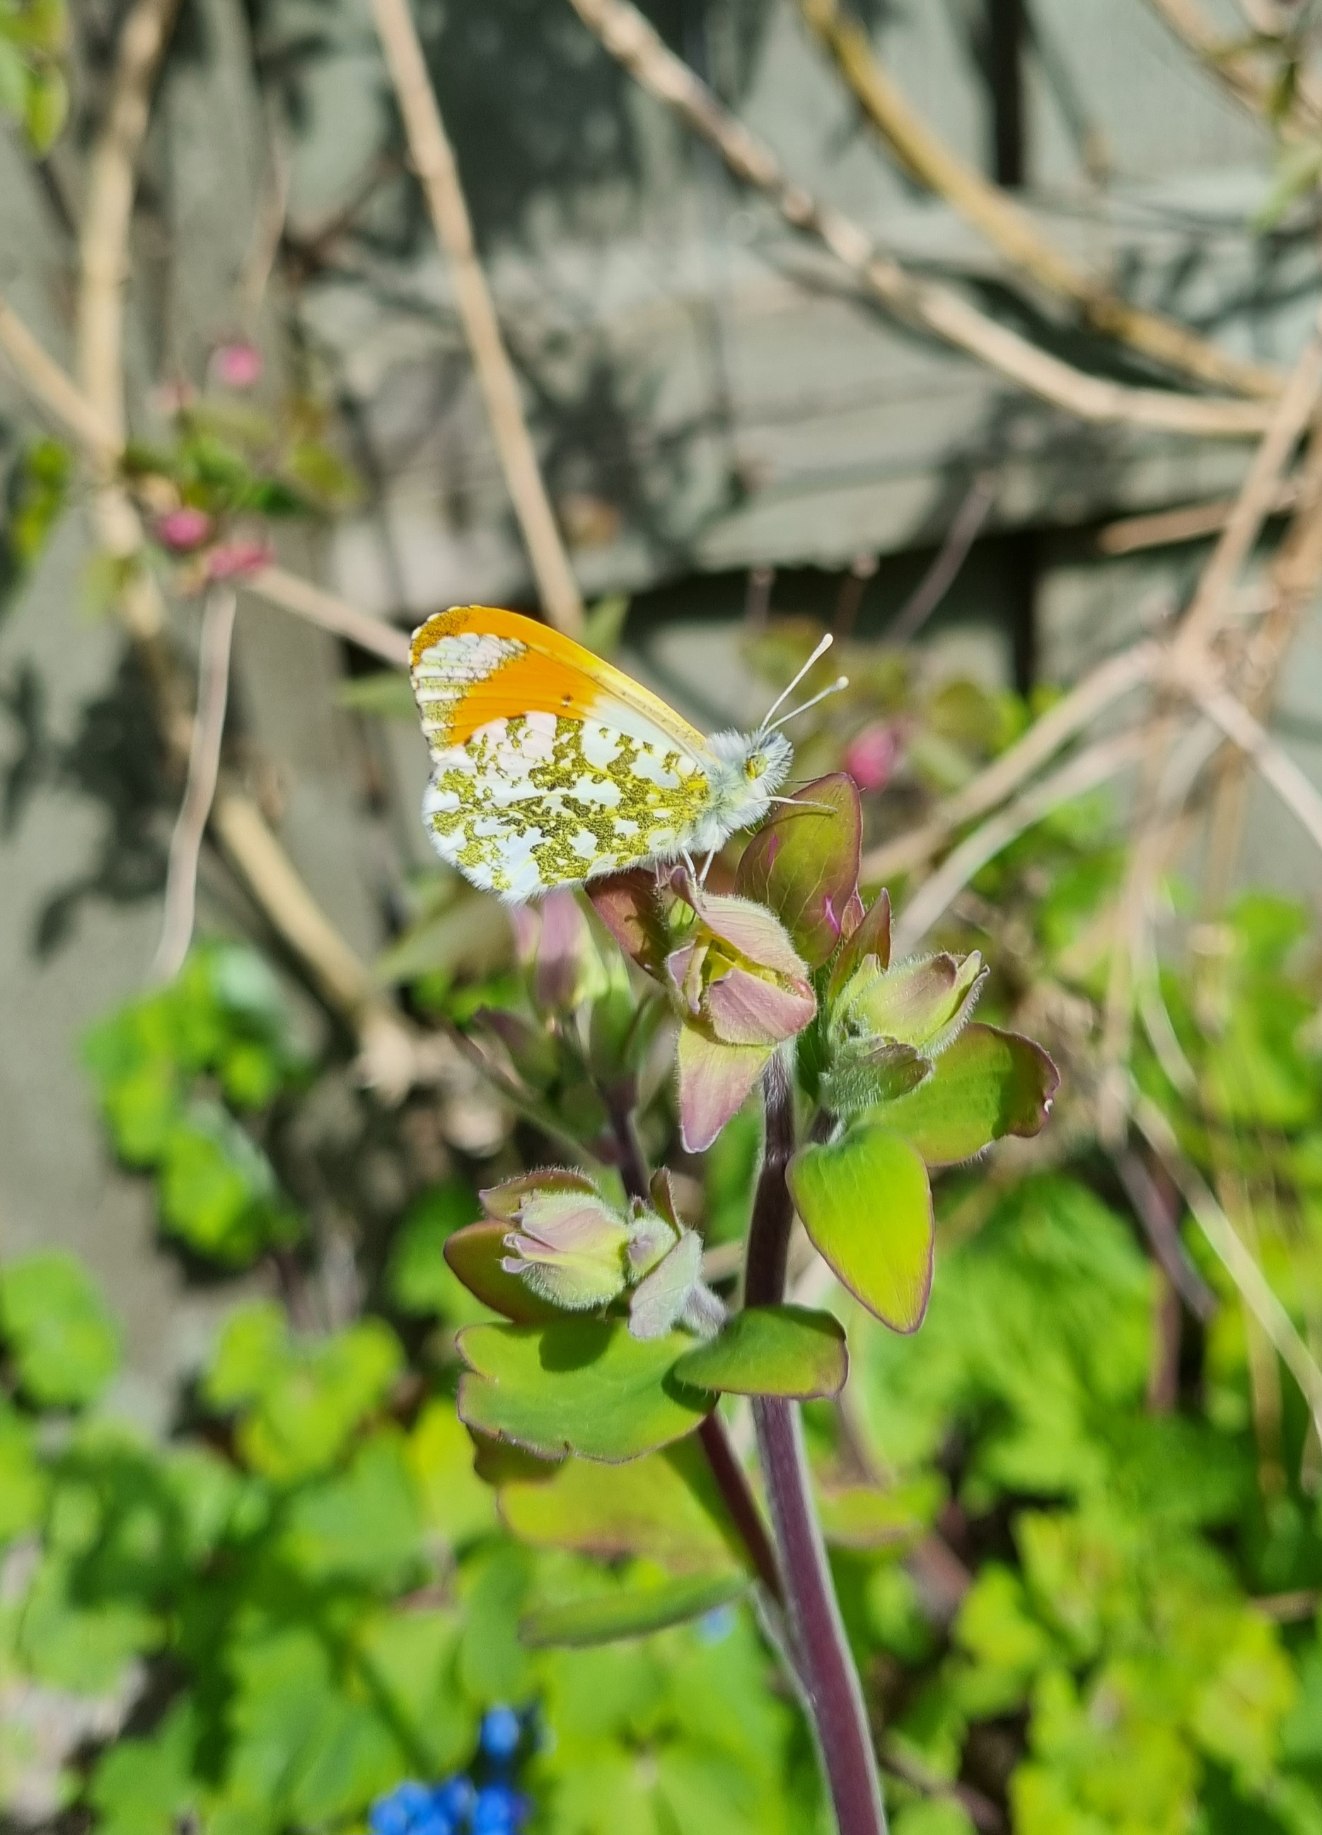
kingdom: Animalia
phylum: Arthropoda
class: Insecta
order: Lepidoptera
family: Pieridae
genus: Anthocharis
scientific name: Anthocharis cardamines
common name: Aurora
